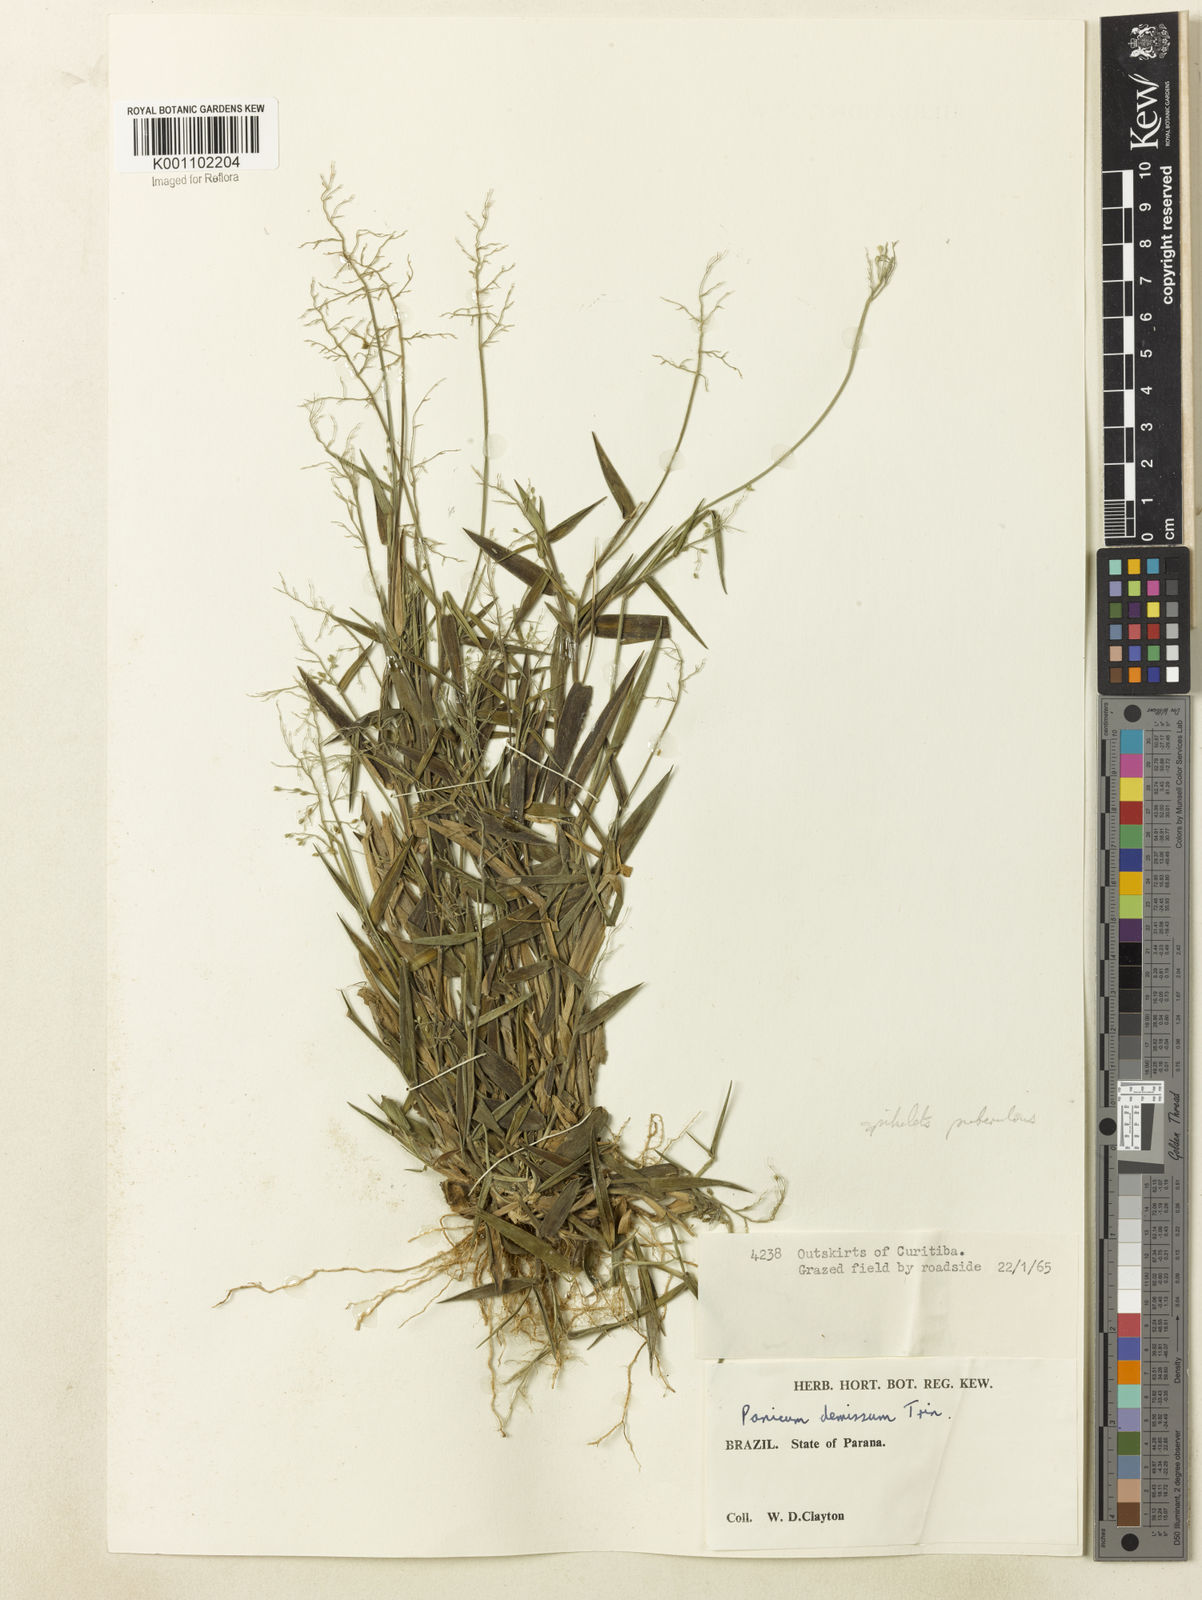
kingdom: Plantae
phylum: Tracheophyta
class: Liliopsida
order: Poales
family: Poaceae
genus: Dichanthelium
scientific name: Dichanthelium sabulorum
